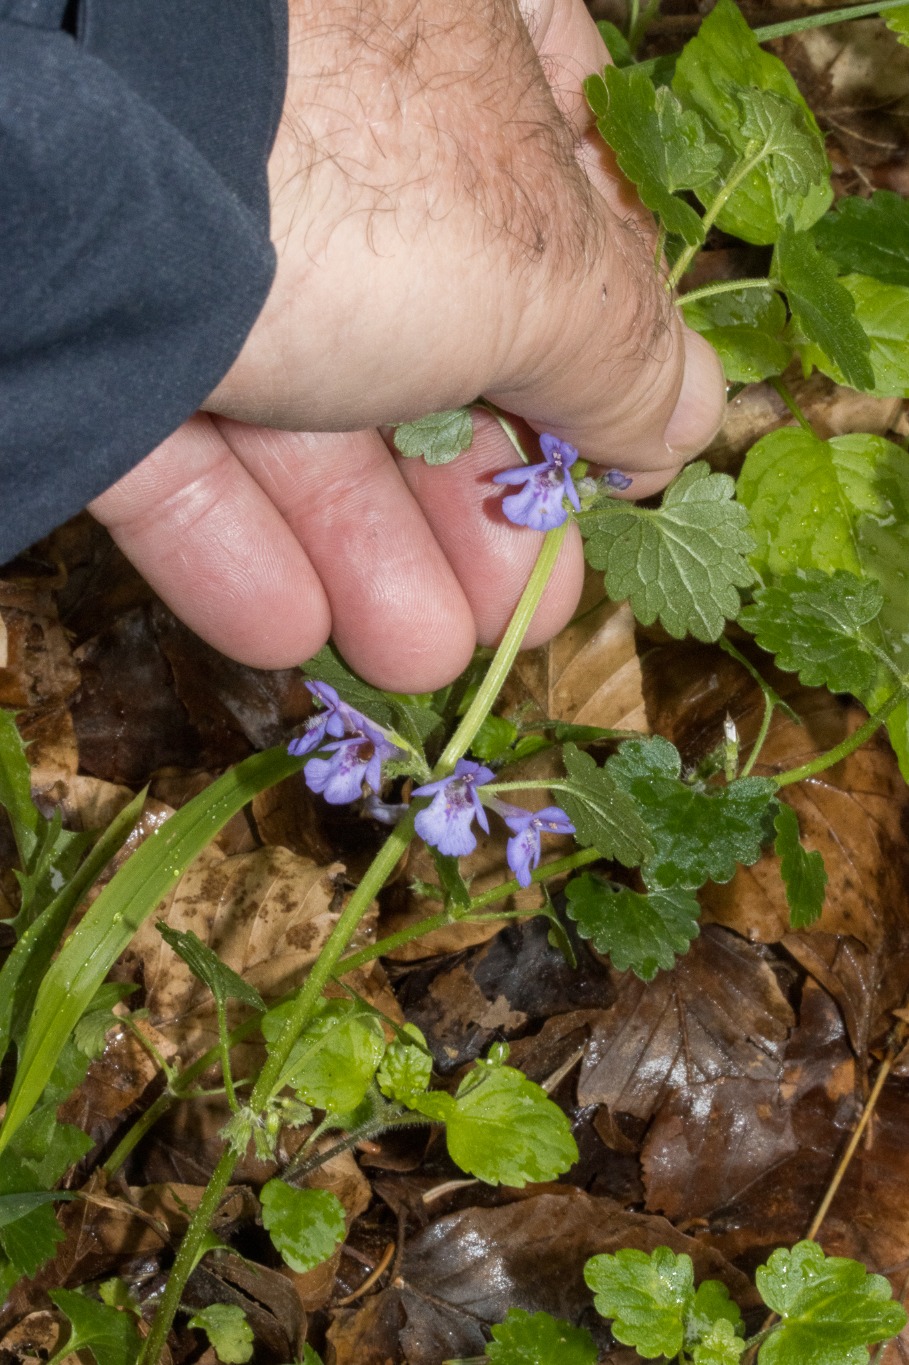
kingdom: Plantae
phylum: Tracheophyta
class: Magnoliopsida
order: Lamiales
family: Lamiaceae
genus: Glechoma
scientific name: Glechoma hederacea
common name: Korsknap
